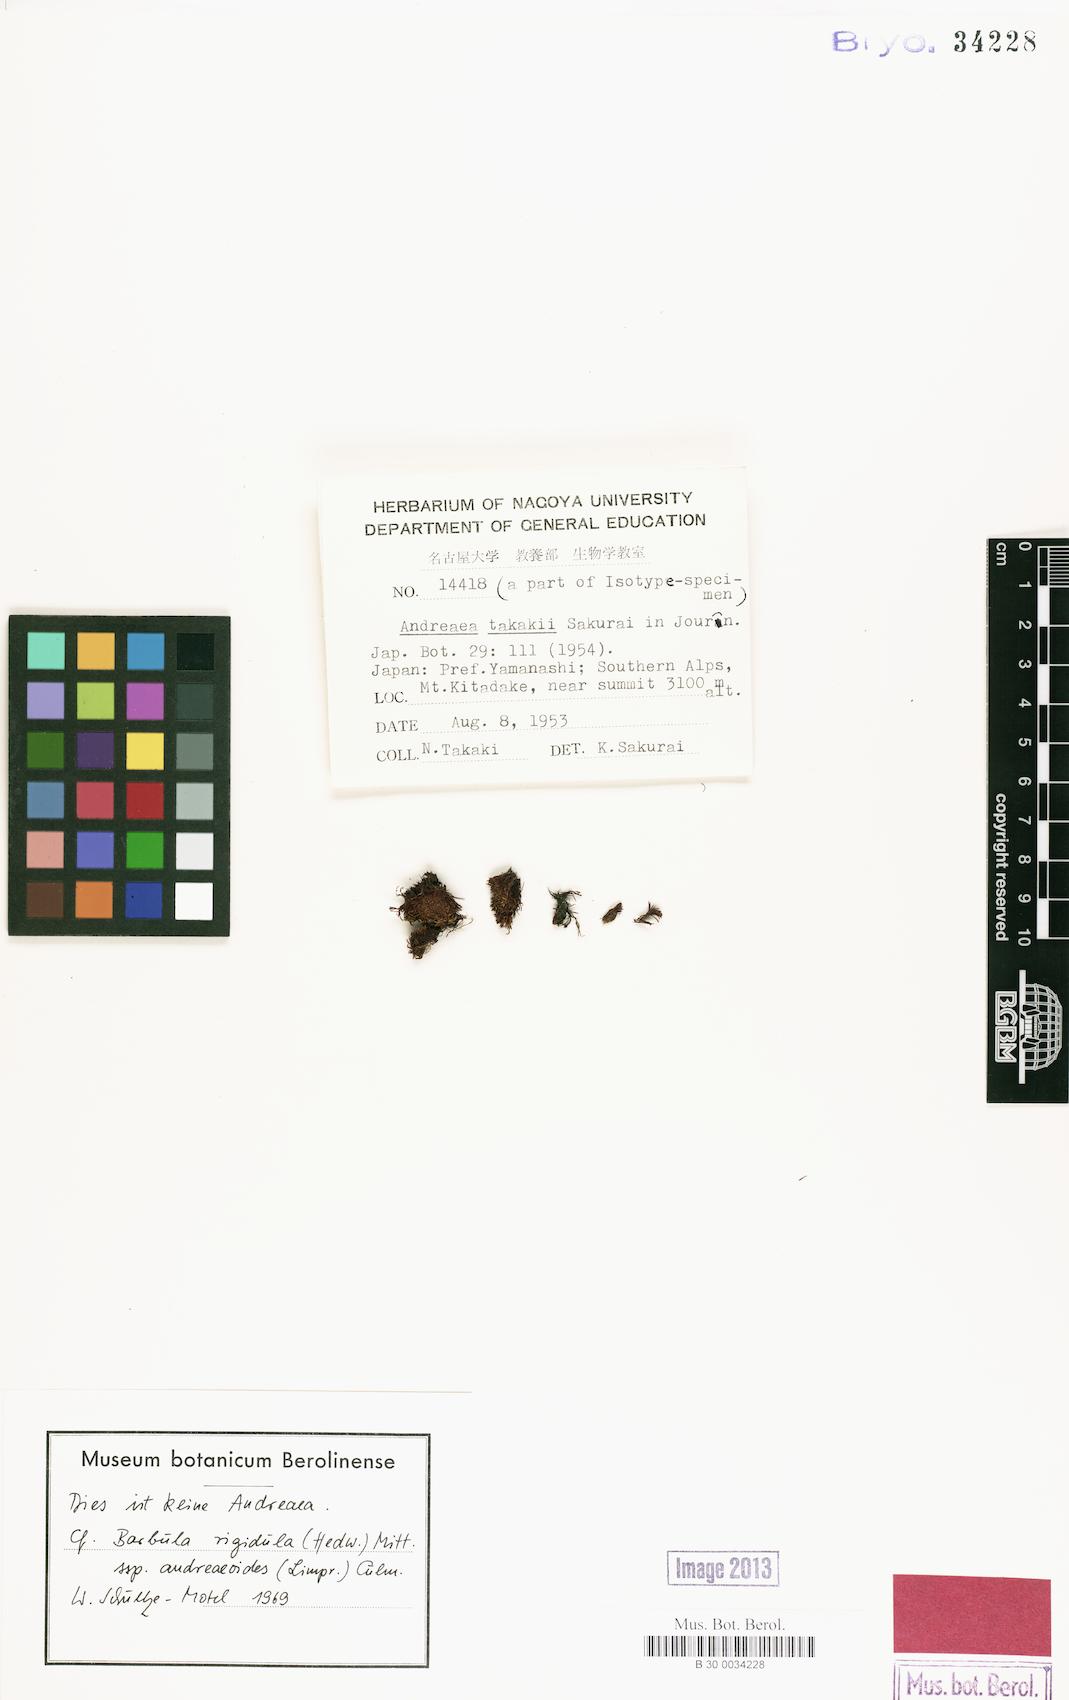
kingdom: Plantae
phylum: Bryophyta
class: Bryopsida
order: Pottiales
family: Pottiaceae
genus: Didymodon
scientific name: Didymodon subandreaeoides
